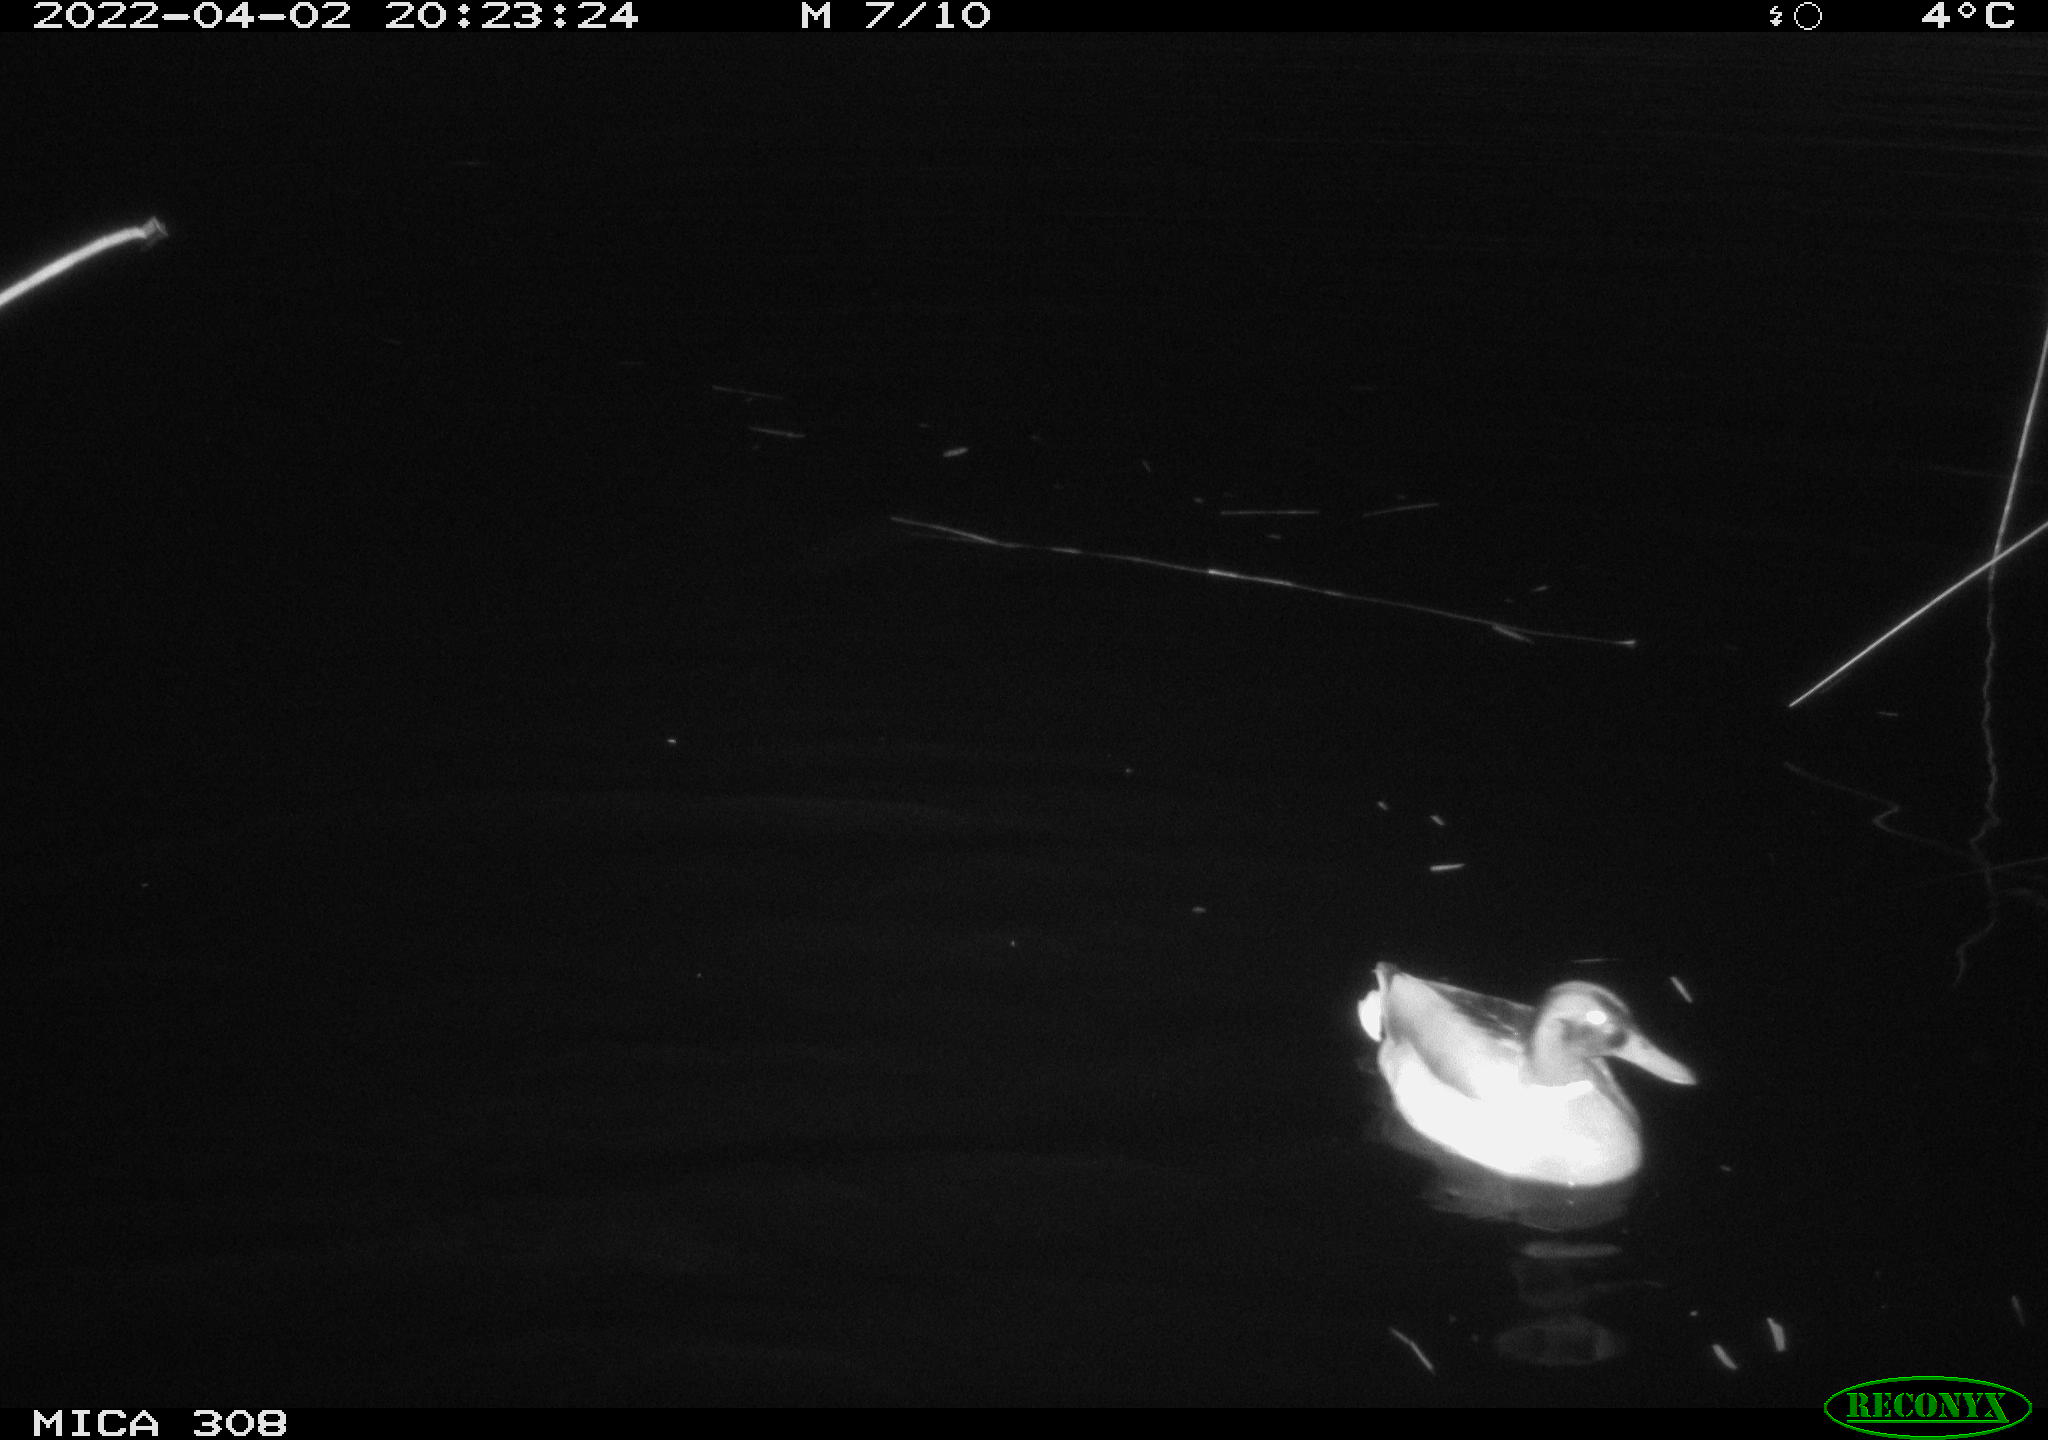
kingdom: Animalia
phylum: Chordata
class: Aves
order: Anseriformes
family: Anatidae
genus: Anas
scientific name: Anas platyrhynchos
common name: Mallard
